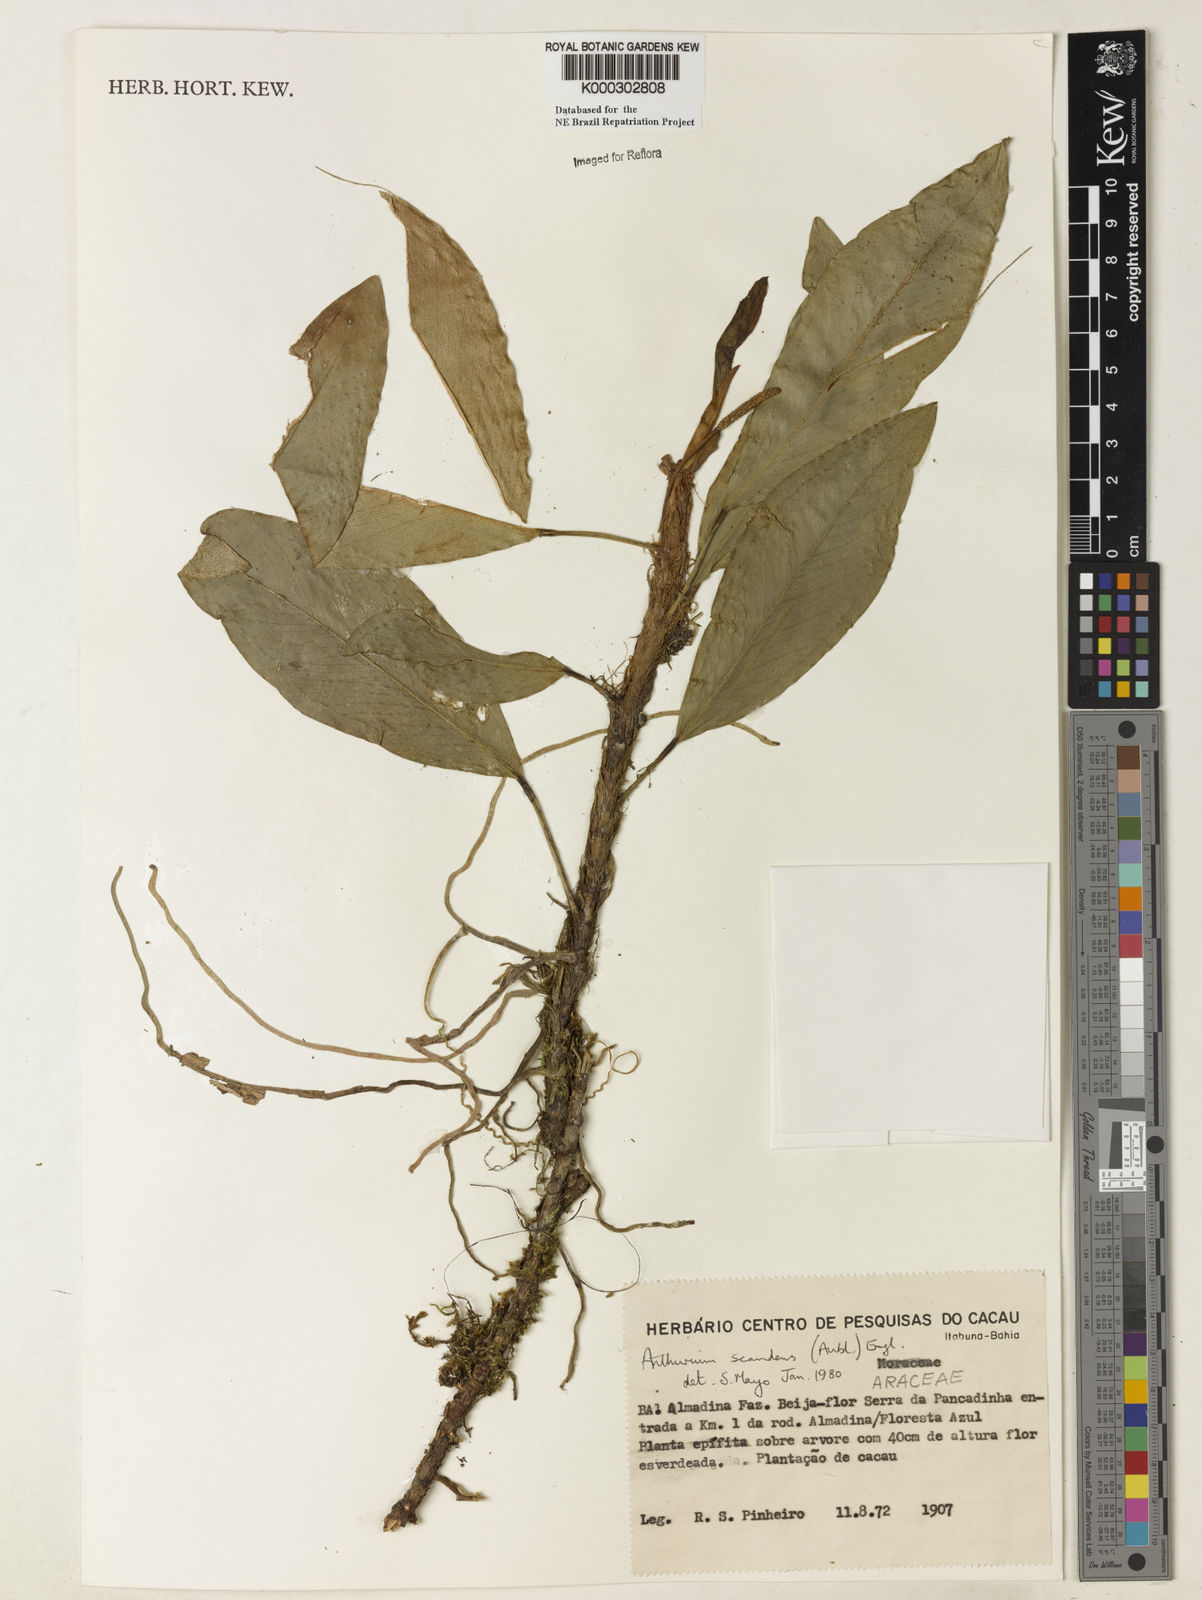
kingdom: Plantae
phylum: Tracheophyta
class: Liliopsida
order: Alismatales
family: Araceae
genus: Anthurium
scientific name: Anthurium scandens
